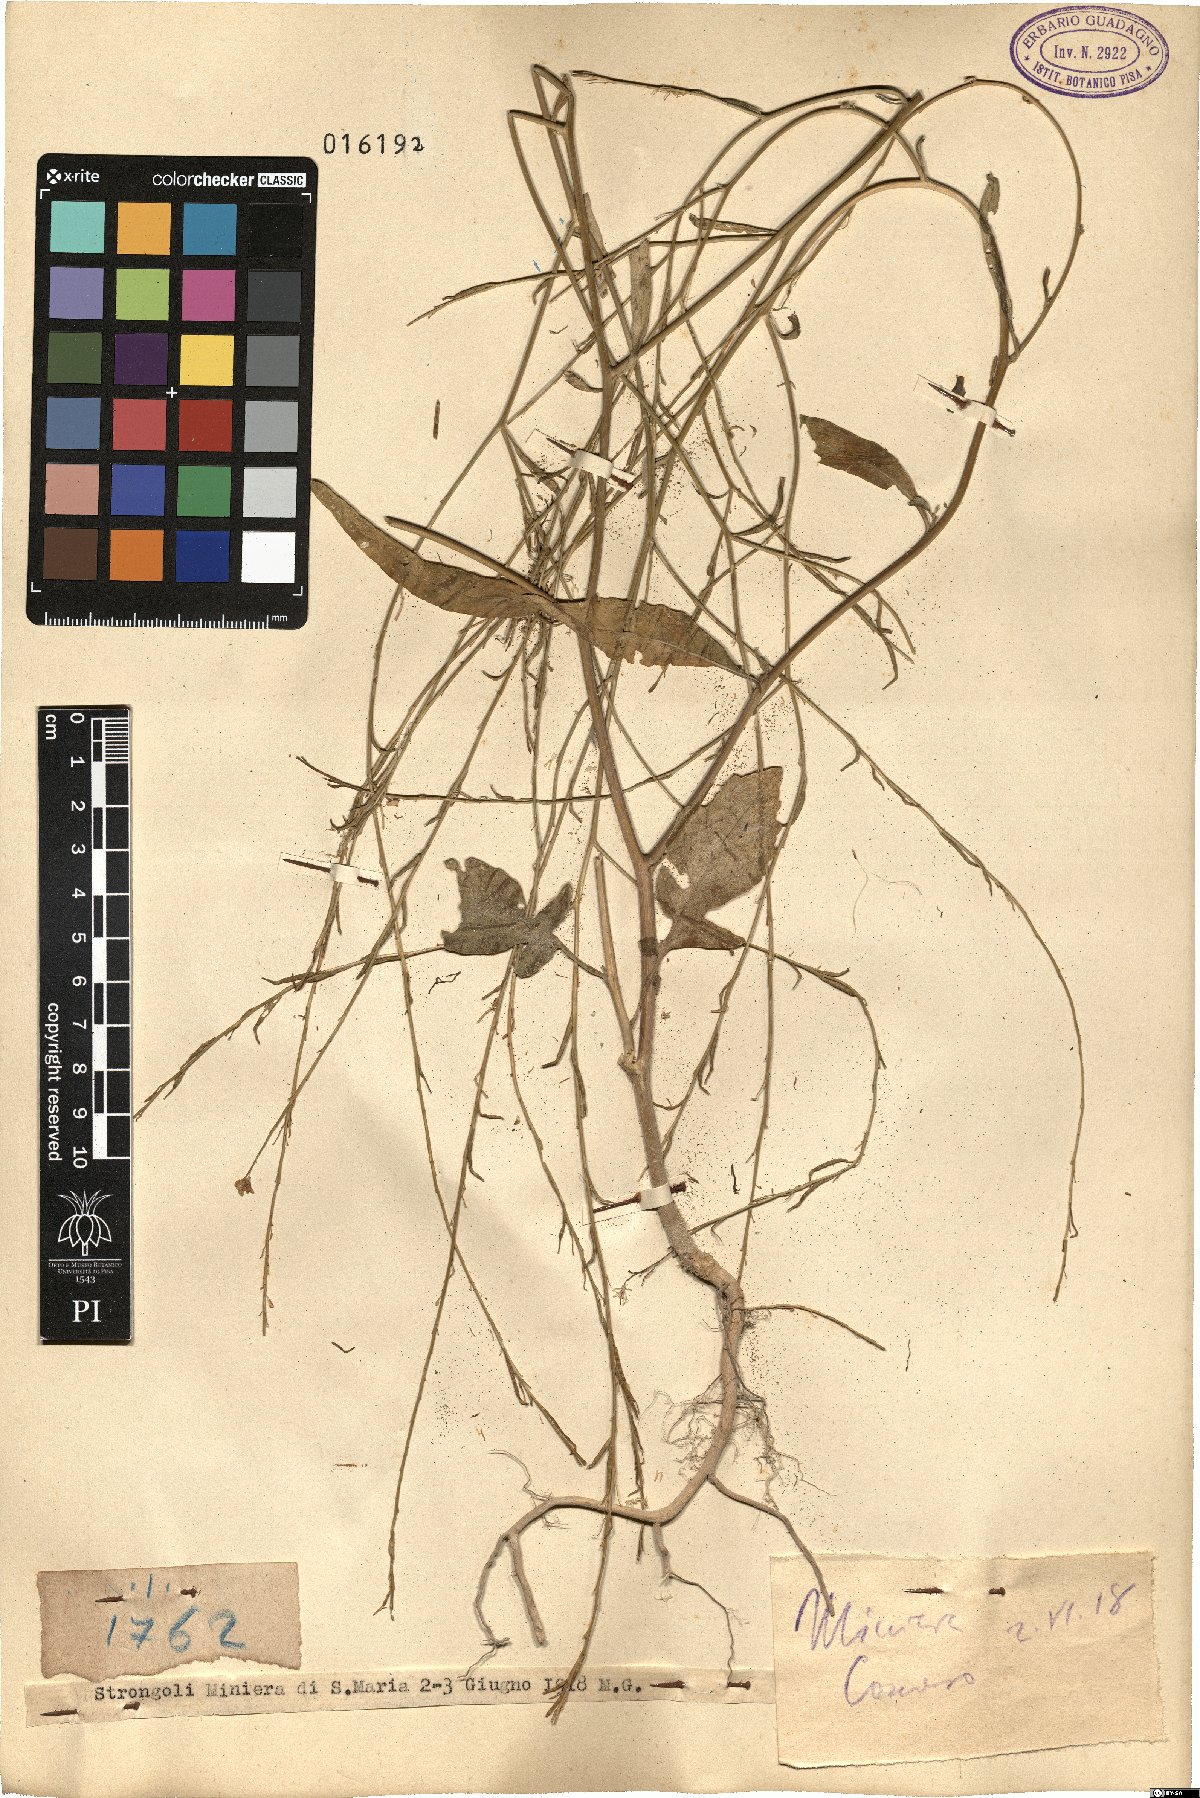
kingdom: Plantae
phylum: Tracheophyta
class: Magnoliopsida
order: Brassicales
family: Brassicaceae
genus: Brassica
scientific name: Brassica
